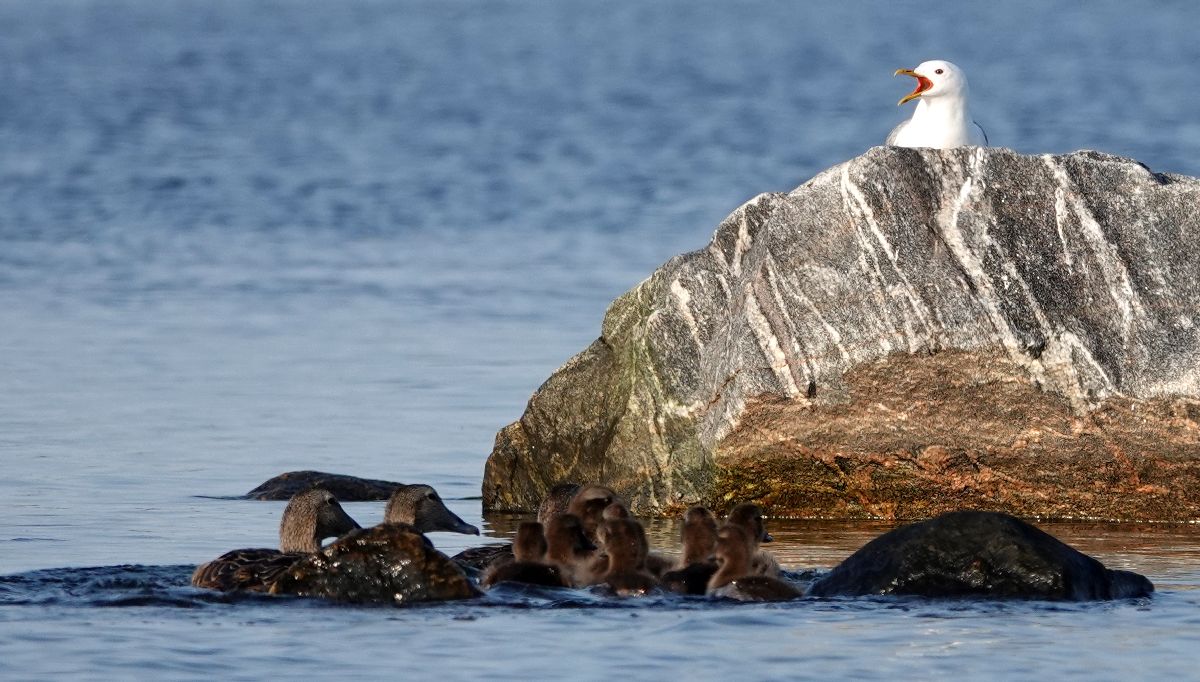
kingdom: Animalia
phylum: Chordata
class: Aves
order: Anseriformes
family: Anatidae
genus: Somateria
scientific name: Somateria mollissima
